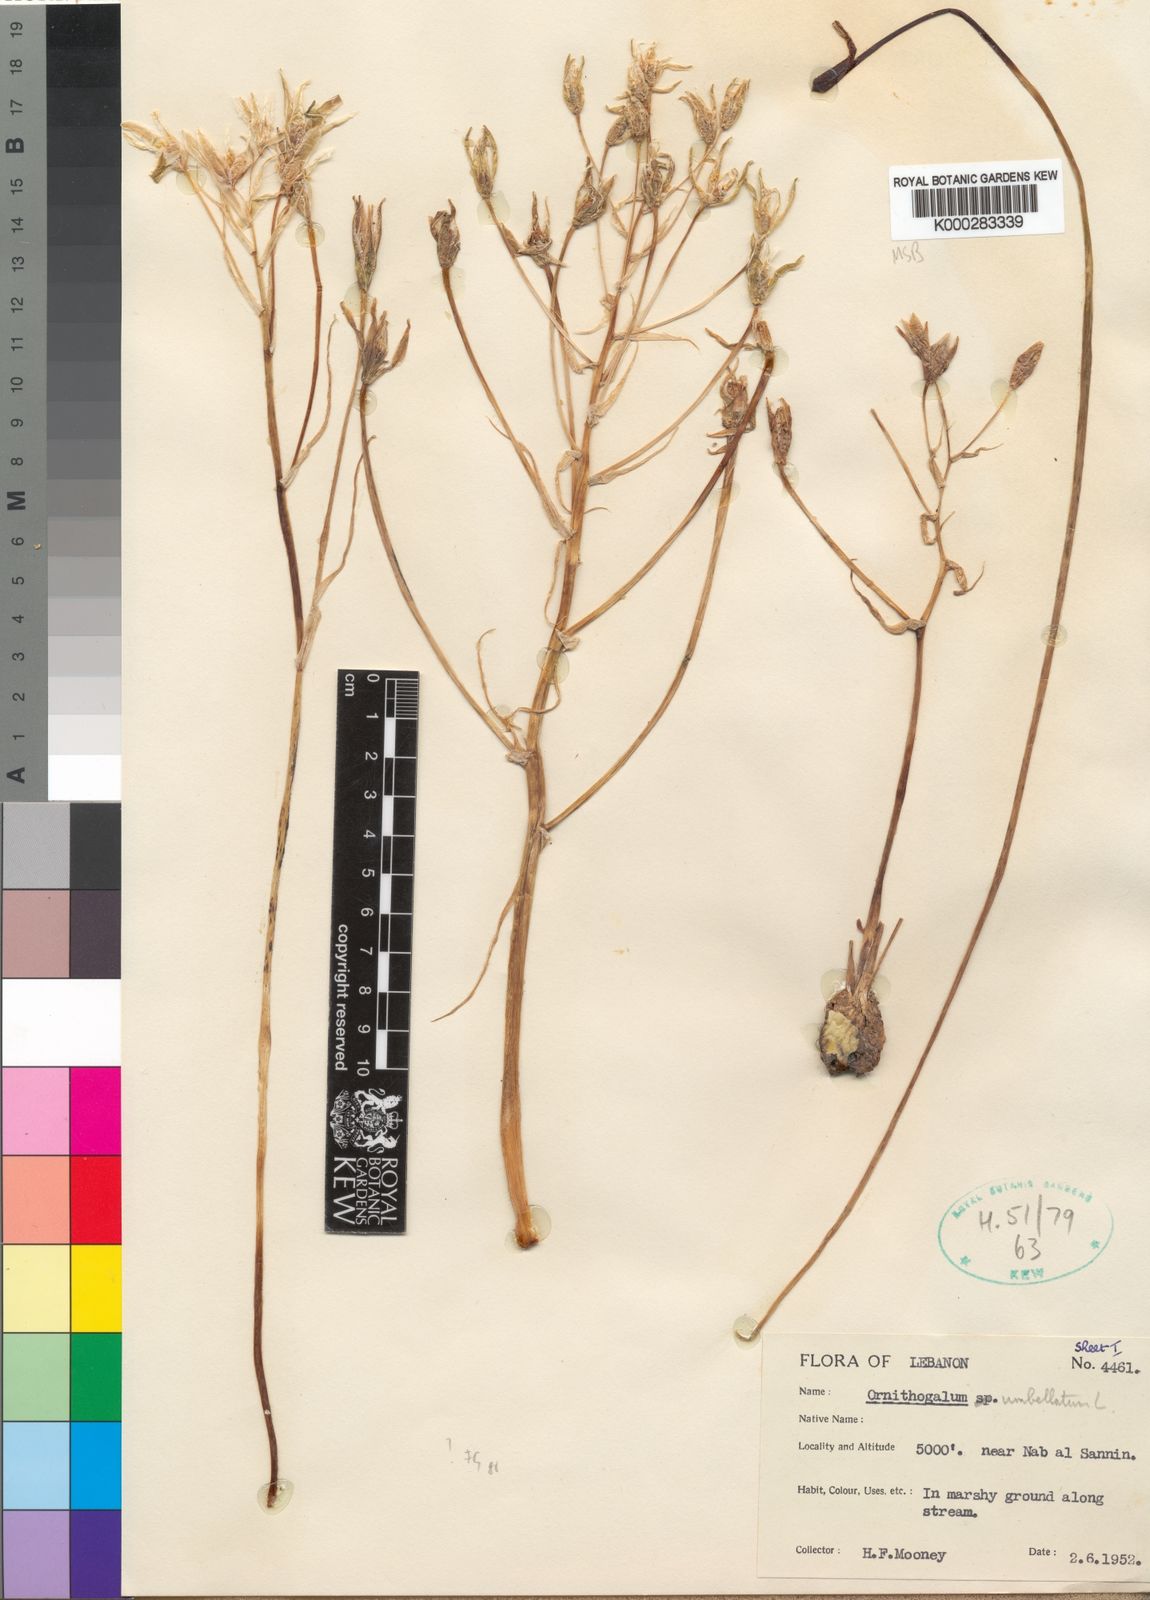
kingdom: Plantae
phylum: Tracheophyta
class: Liliopsida
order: Asparagales
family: Asparagaceae
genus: Ornithogalum
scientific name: Ornithogalum umbellatum
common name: Garden star-of-bethlehem
